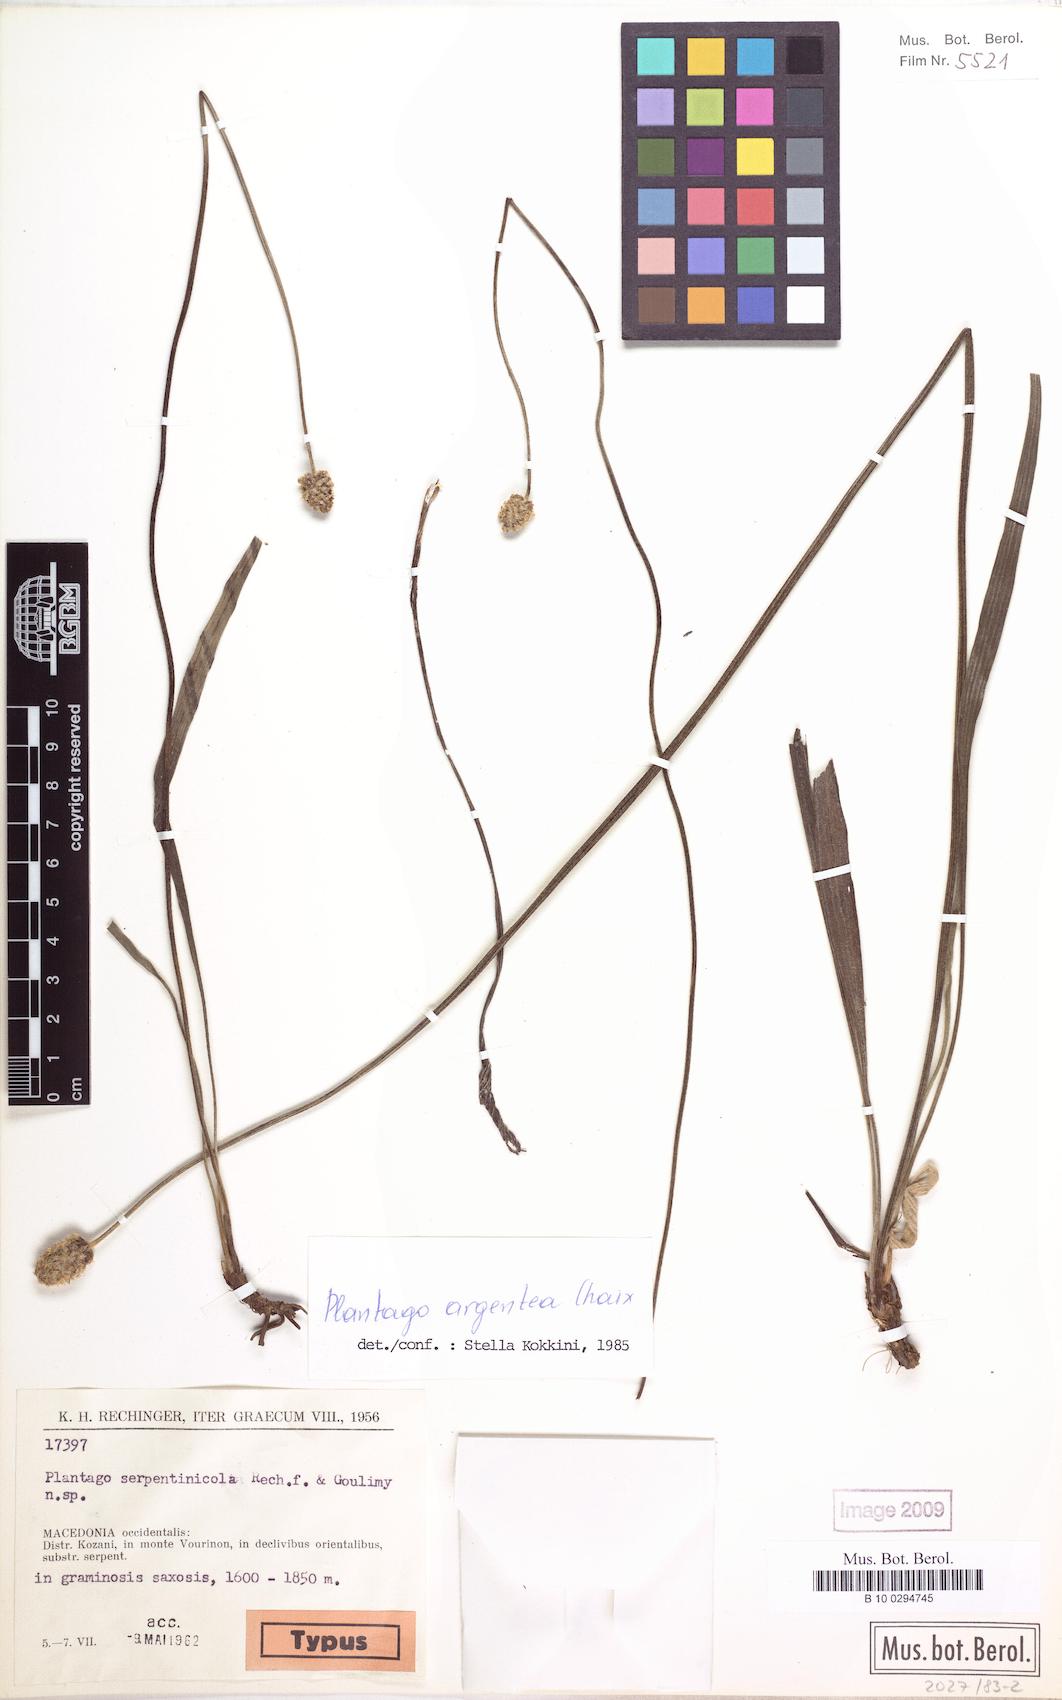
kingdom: Plantae
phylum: Tracheophyta
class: Magnoliopsida
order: Lamiales
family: Plantaginaceae
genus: Plantago
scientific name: Plantago argentea
